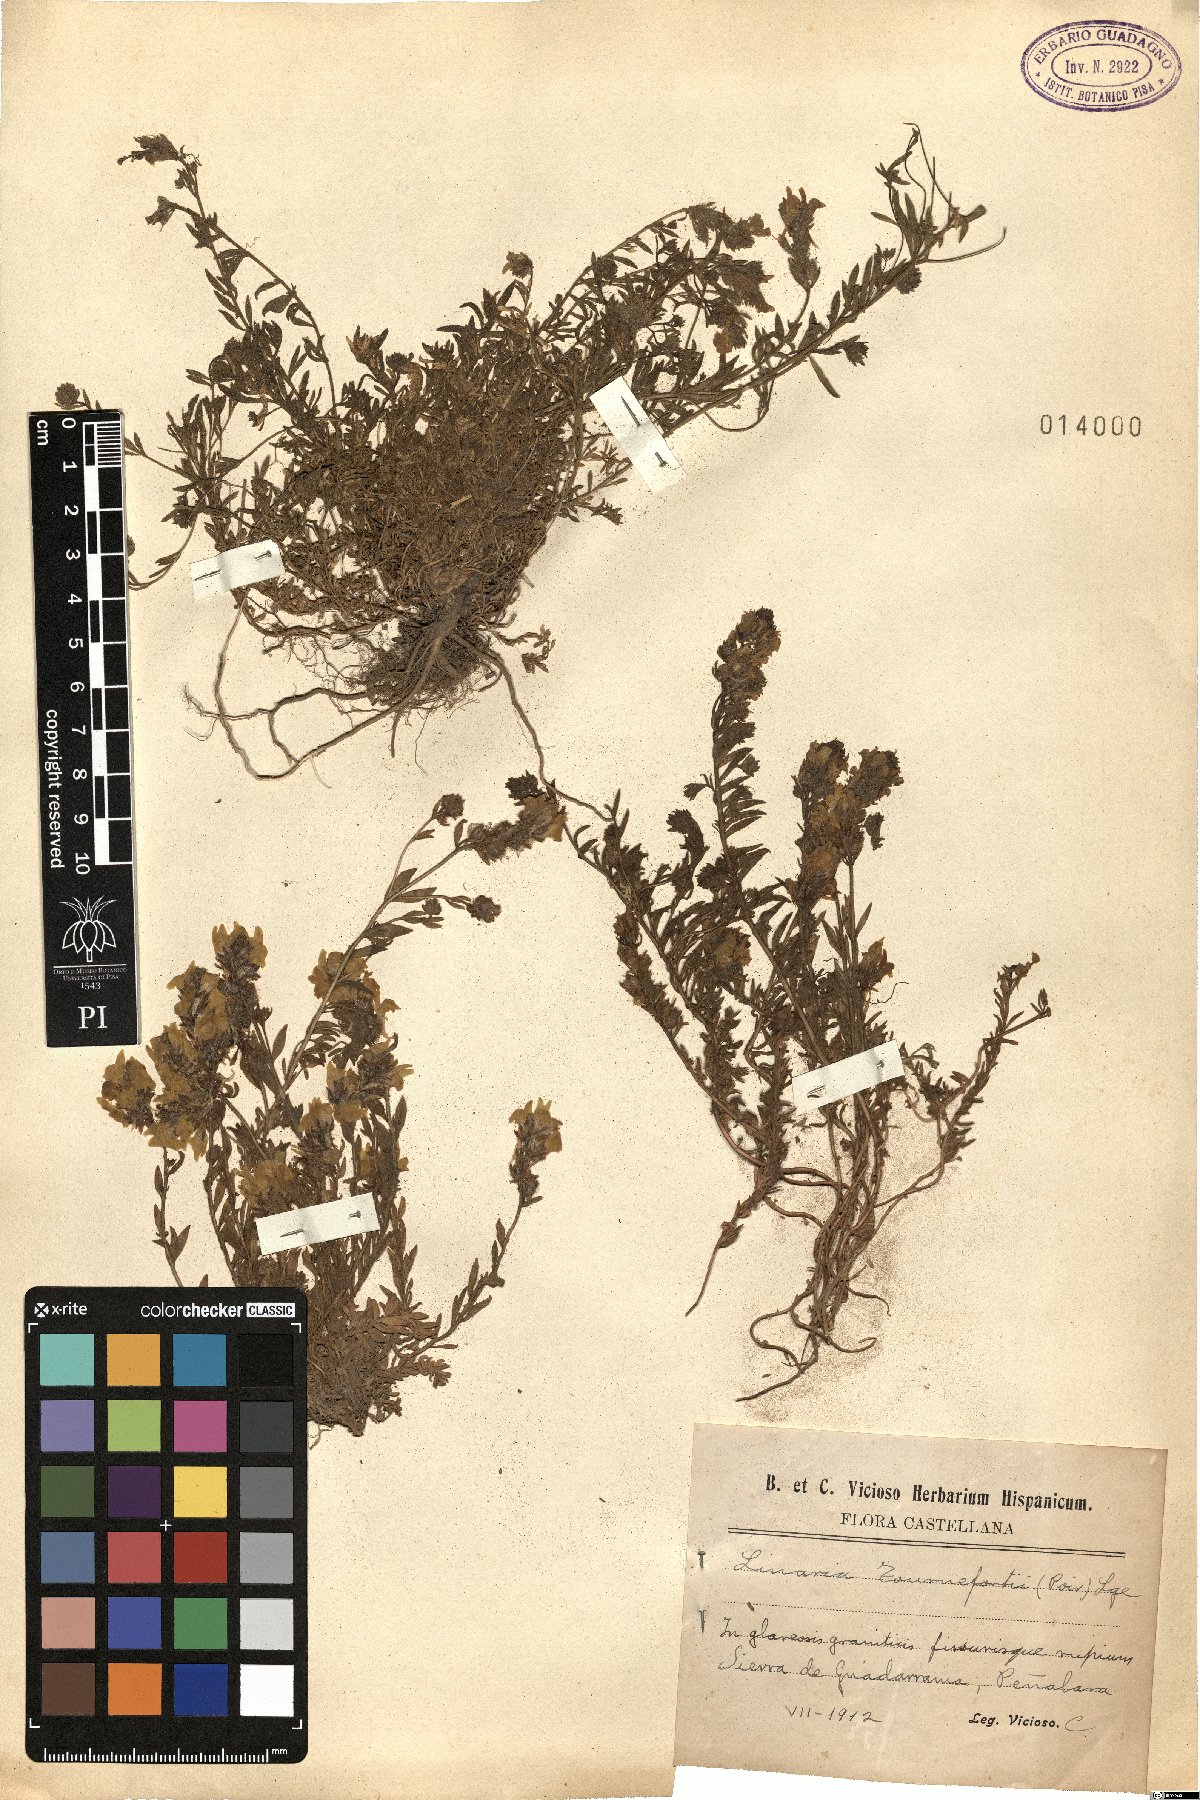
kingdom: Plantae
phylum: Tracheophyta
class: Magnoliopsida
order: Lamiales
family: Plantaginaceae
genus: Linaria
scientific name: Linaria saxatilis
